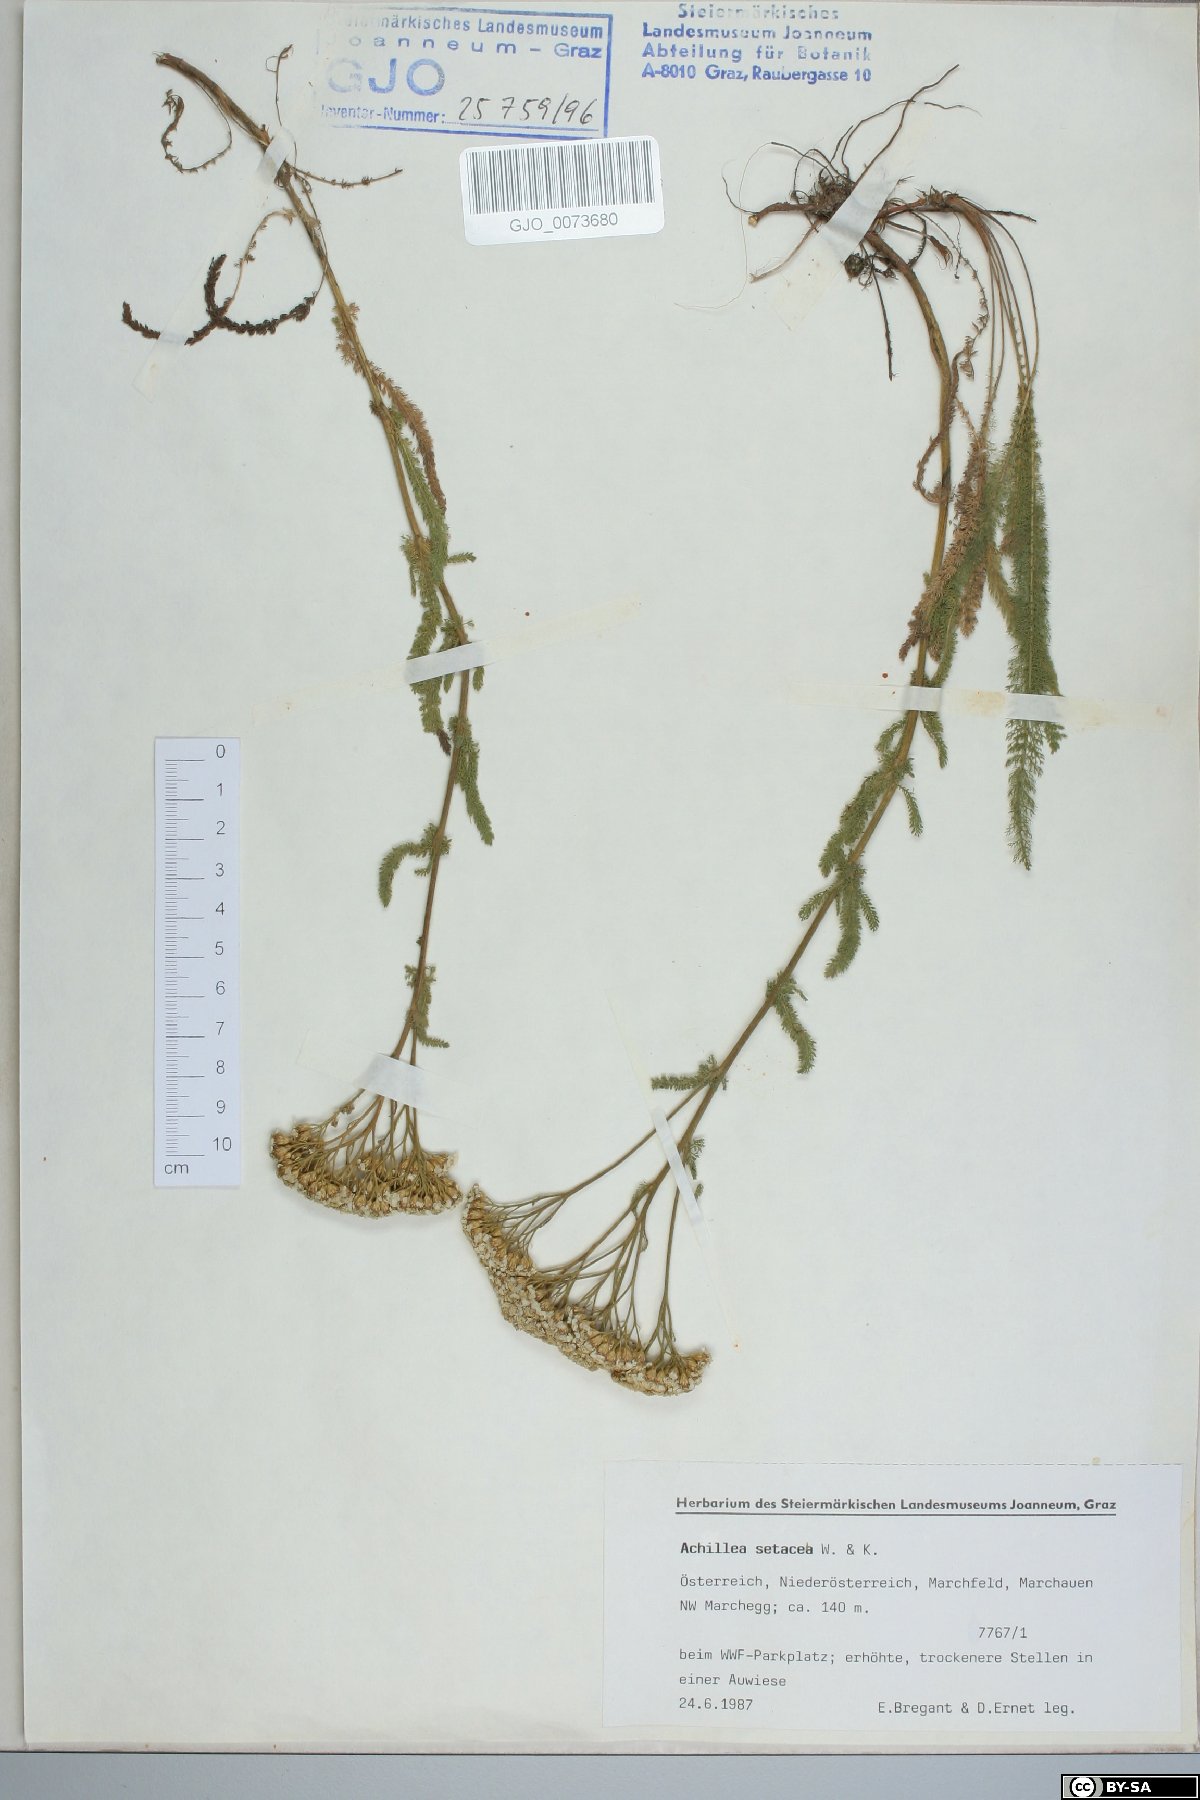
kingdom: Plantae
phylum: Tracheophyta
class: Magnoliopsida
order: Asterales
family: Asteraceae
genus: Achillea
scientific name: Achillea setacea
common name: Bristly yarrow
